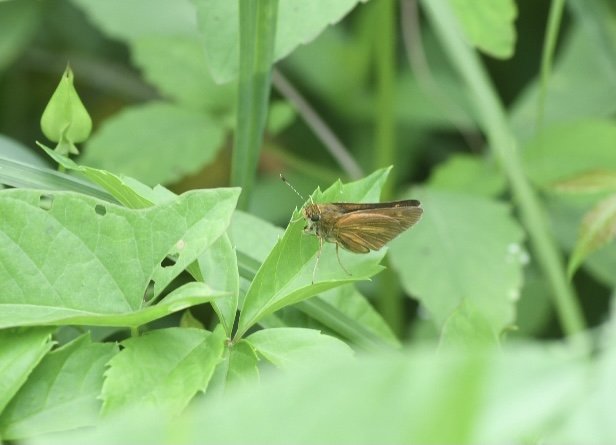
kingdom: Animalia
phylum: Arthropoda
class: Insecta
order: Lepidoptera
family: Hesperiidae
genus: Euphyes
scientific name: Euphyes dion
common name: Dion Skipper
